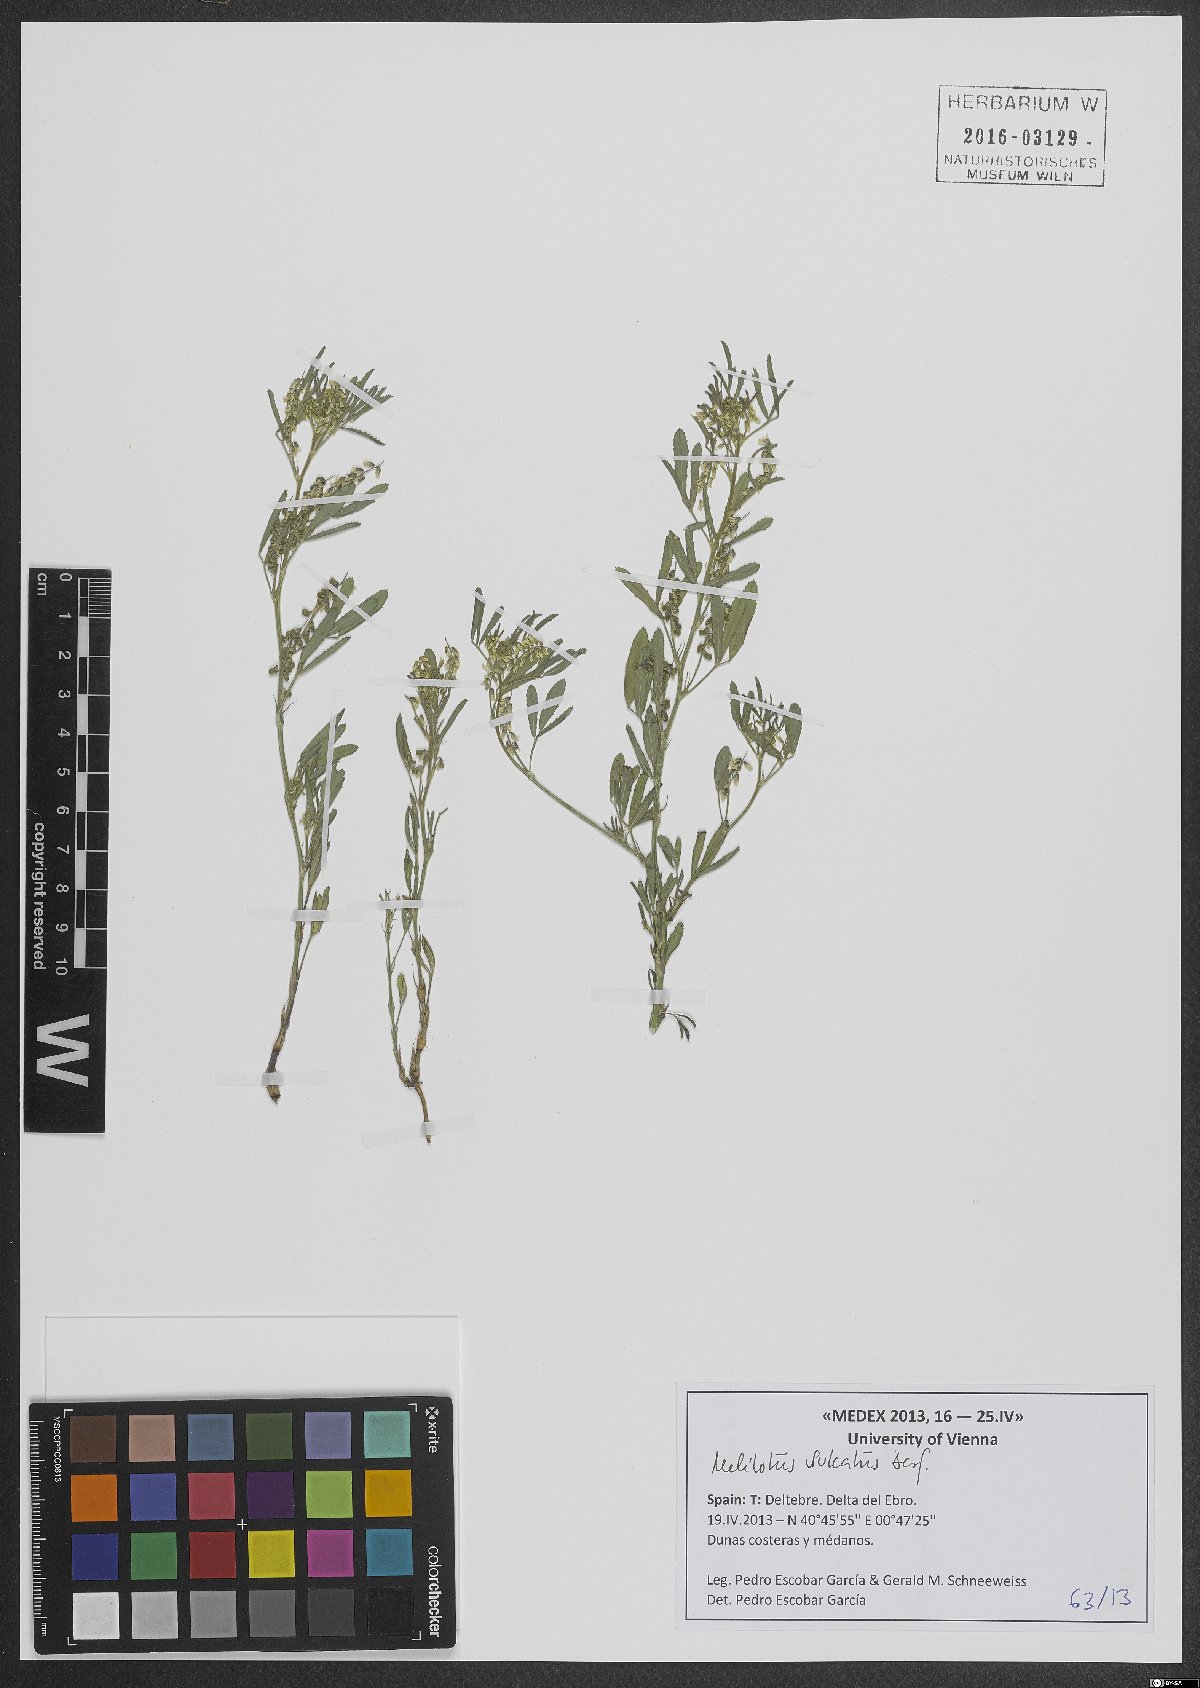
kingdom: Plantae
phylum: Tracheophyta
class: Magnoliopsida
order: Fabales
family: Fabaceae
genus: Melilotus
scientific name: Melilotus sulcatus
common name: Furrowed melilot
